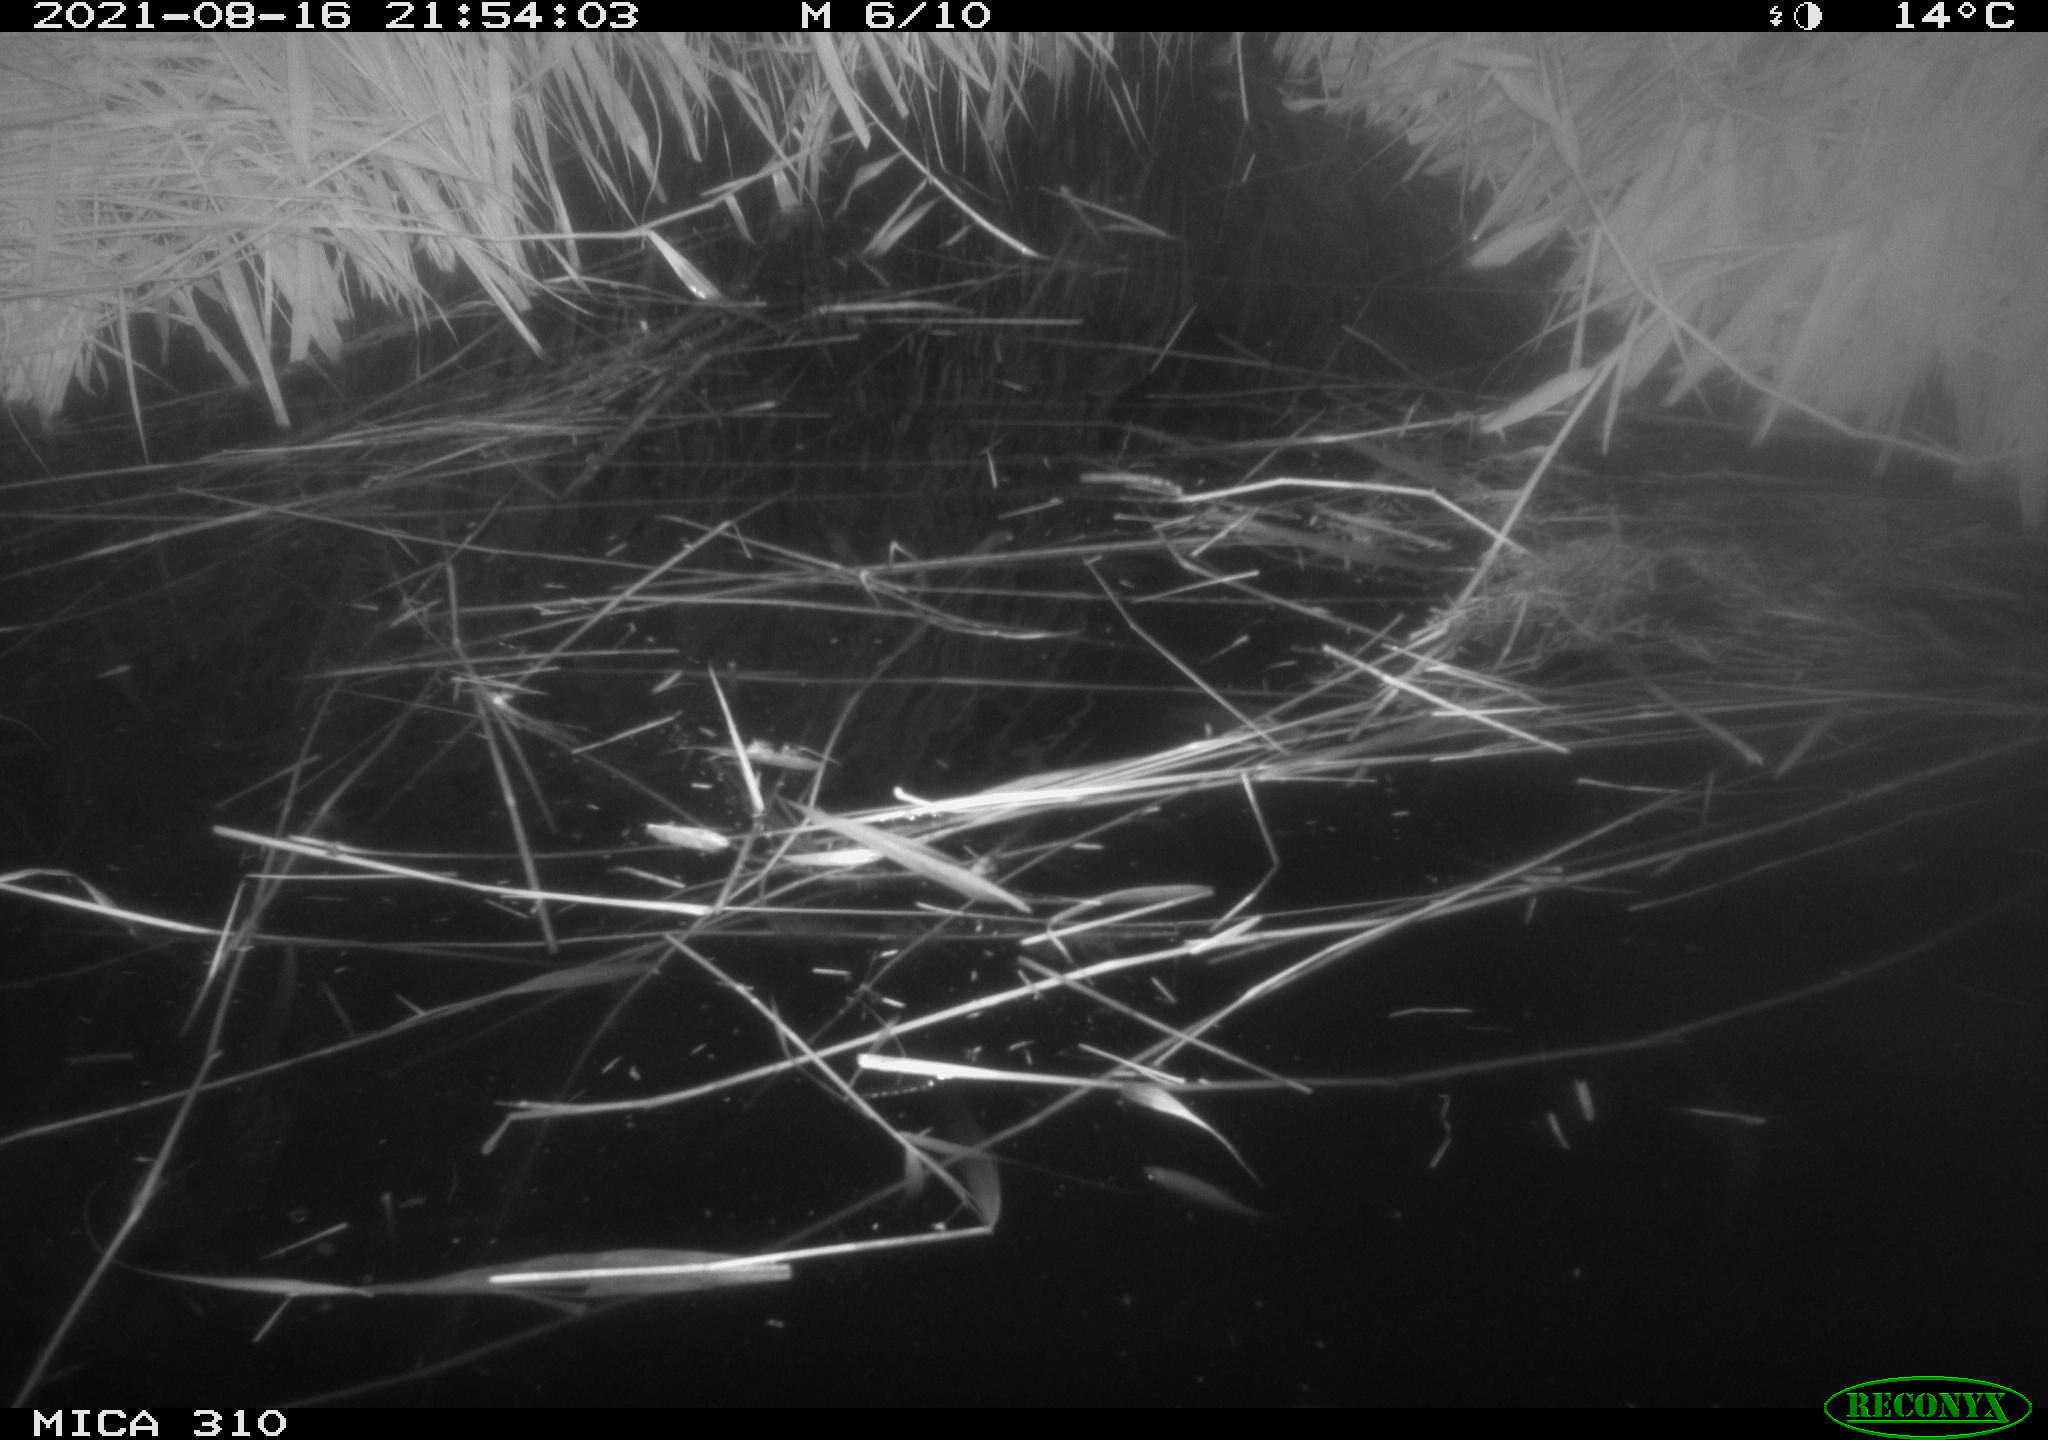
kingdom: Animalia
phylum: Chordata
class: Aves
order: Anseriformes
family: Anatidae
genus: Anas
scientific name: Anas platyrhynchos
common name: Mallard
